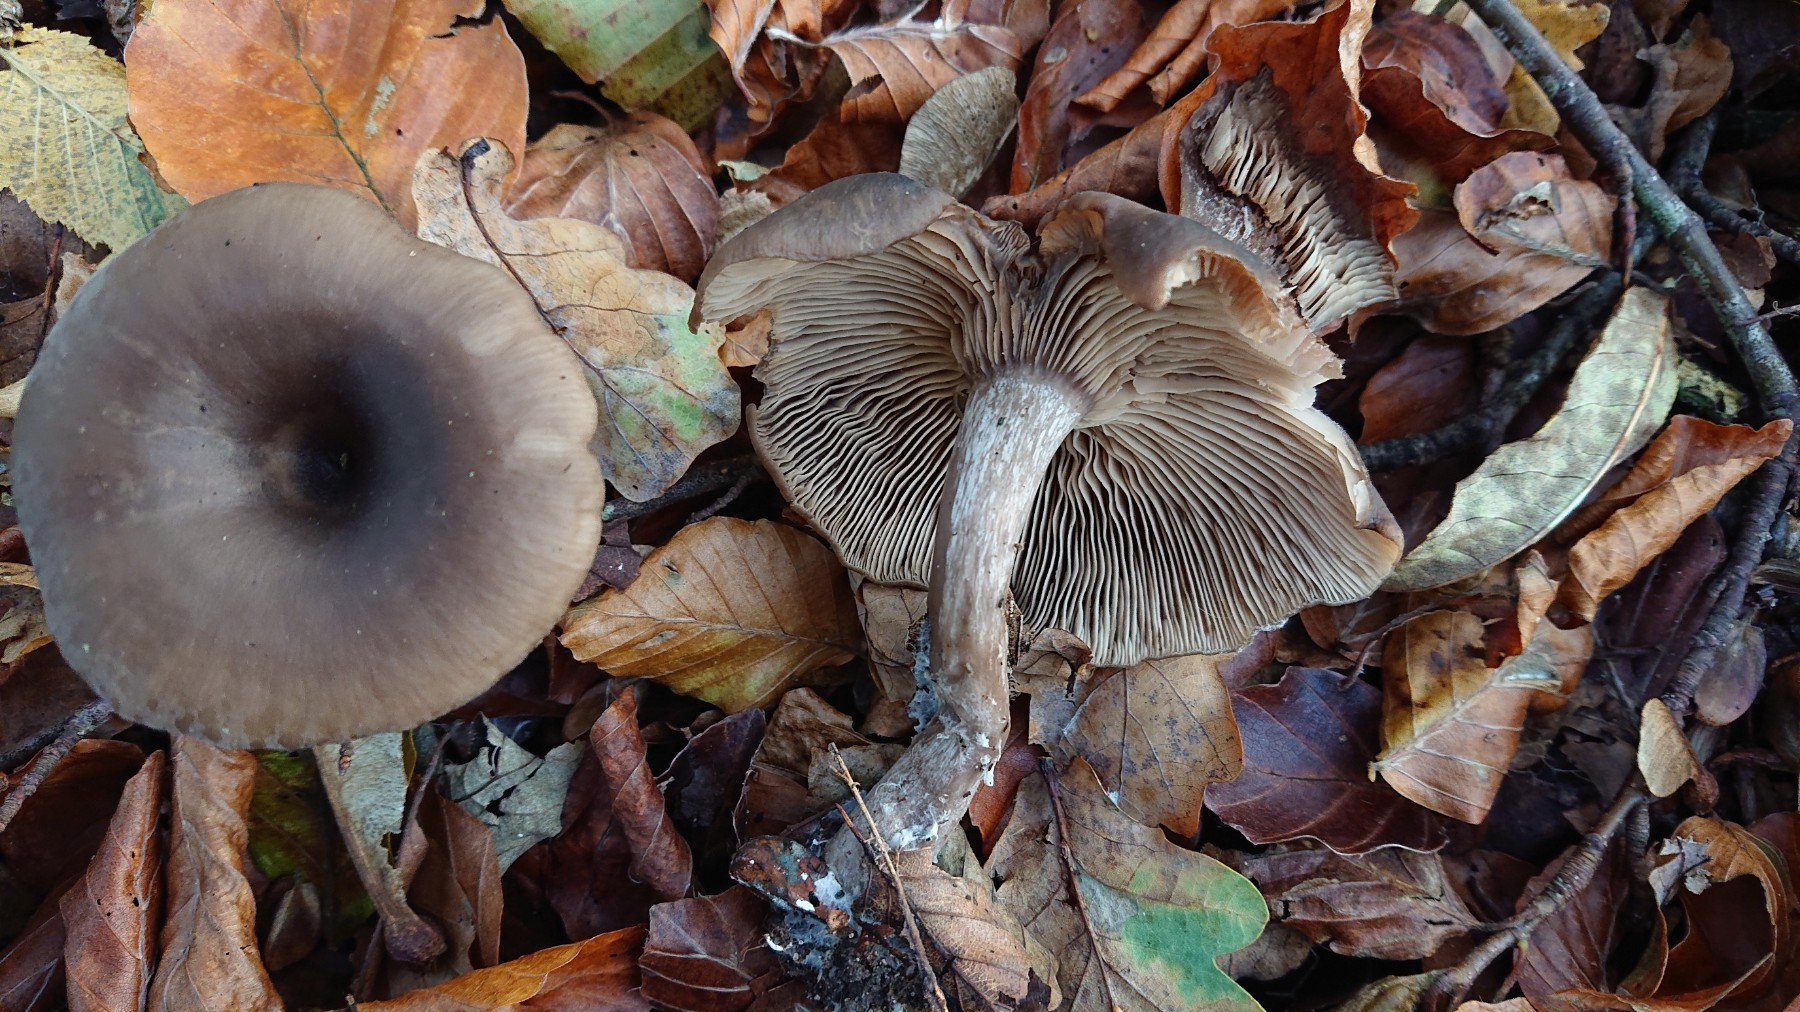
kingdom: Fungi
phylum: Basidiomycota
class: Agaricomycetes
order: Agaricales
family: Pseudoclitocybaceae
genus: Pseudoclitocybe
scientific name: Pseudoclitocybe cyathiformis
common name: almindelig bægertragthat
